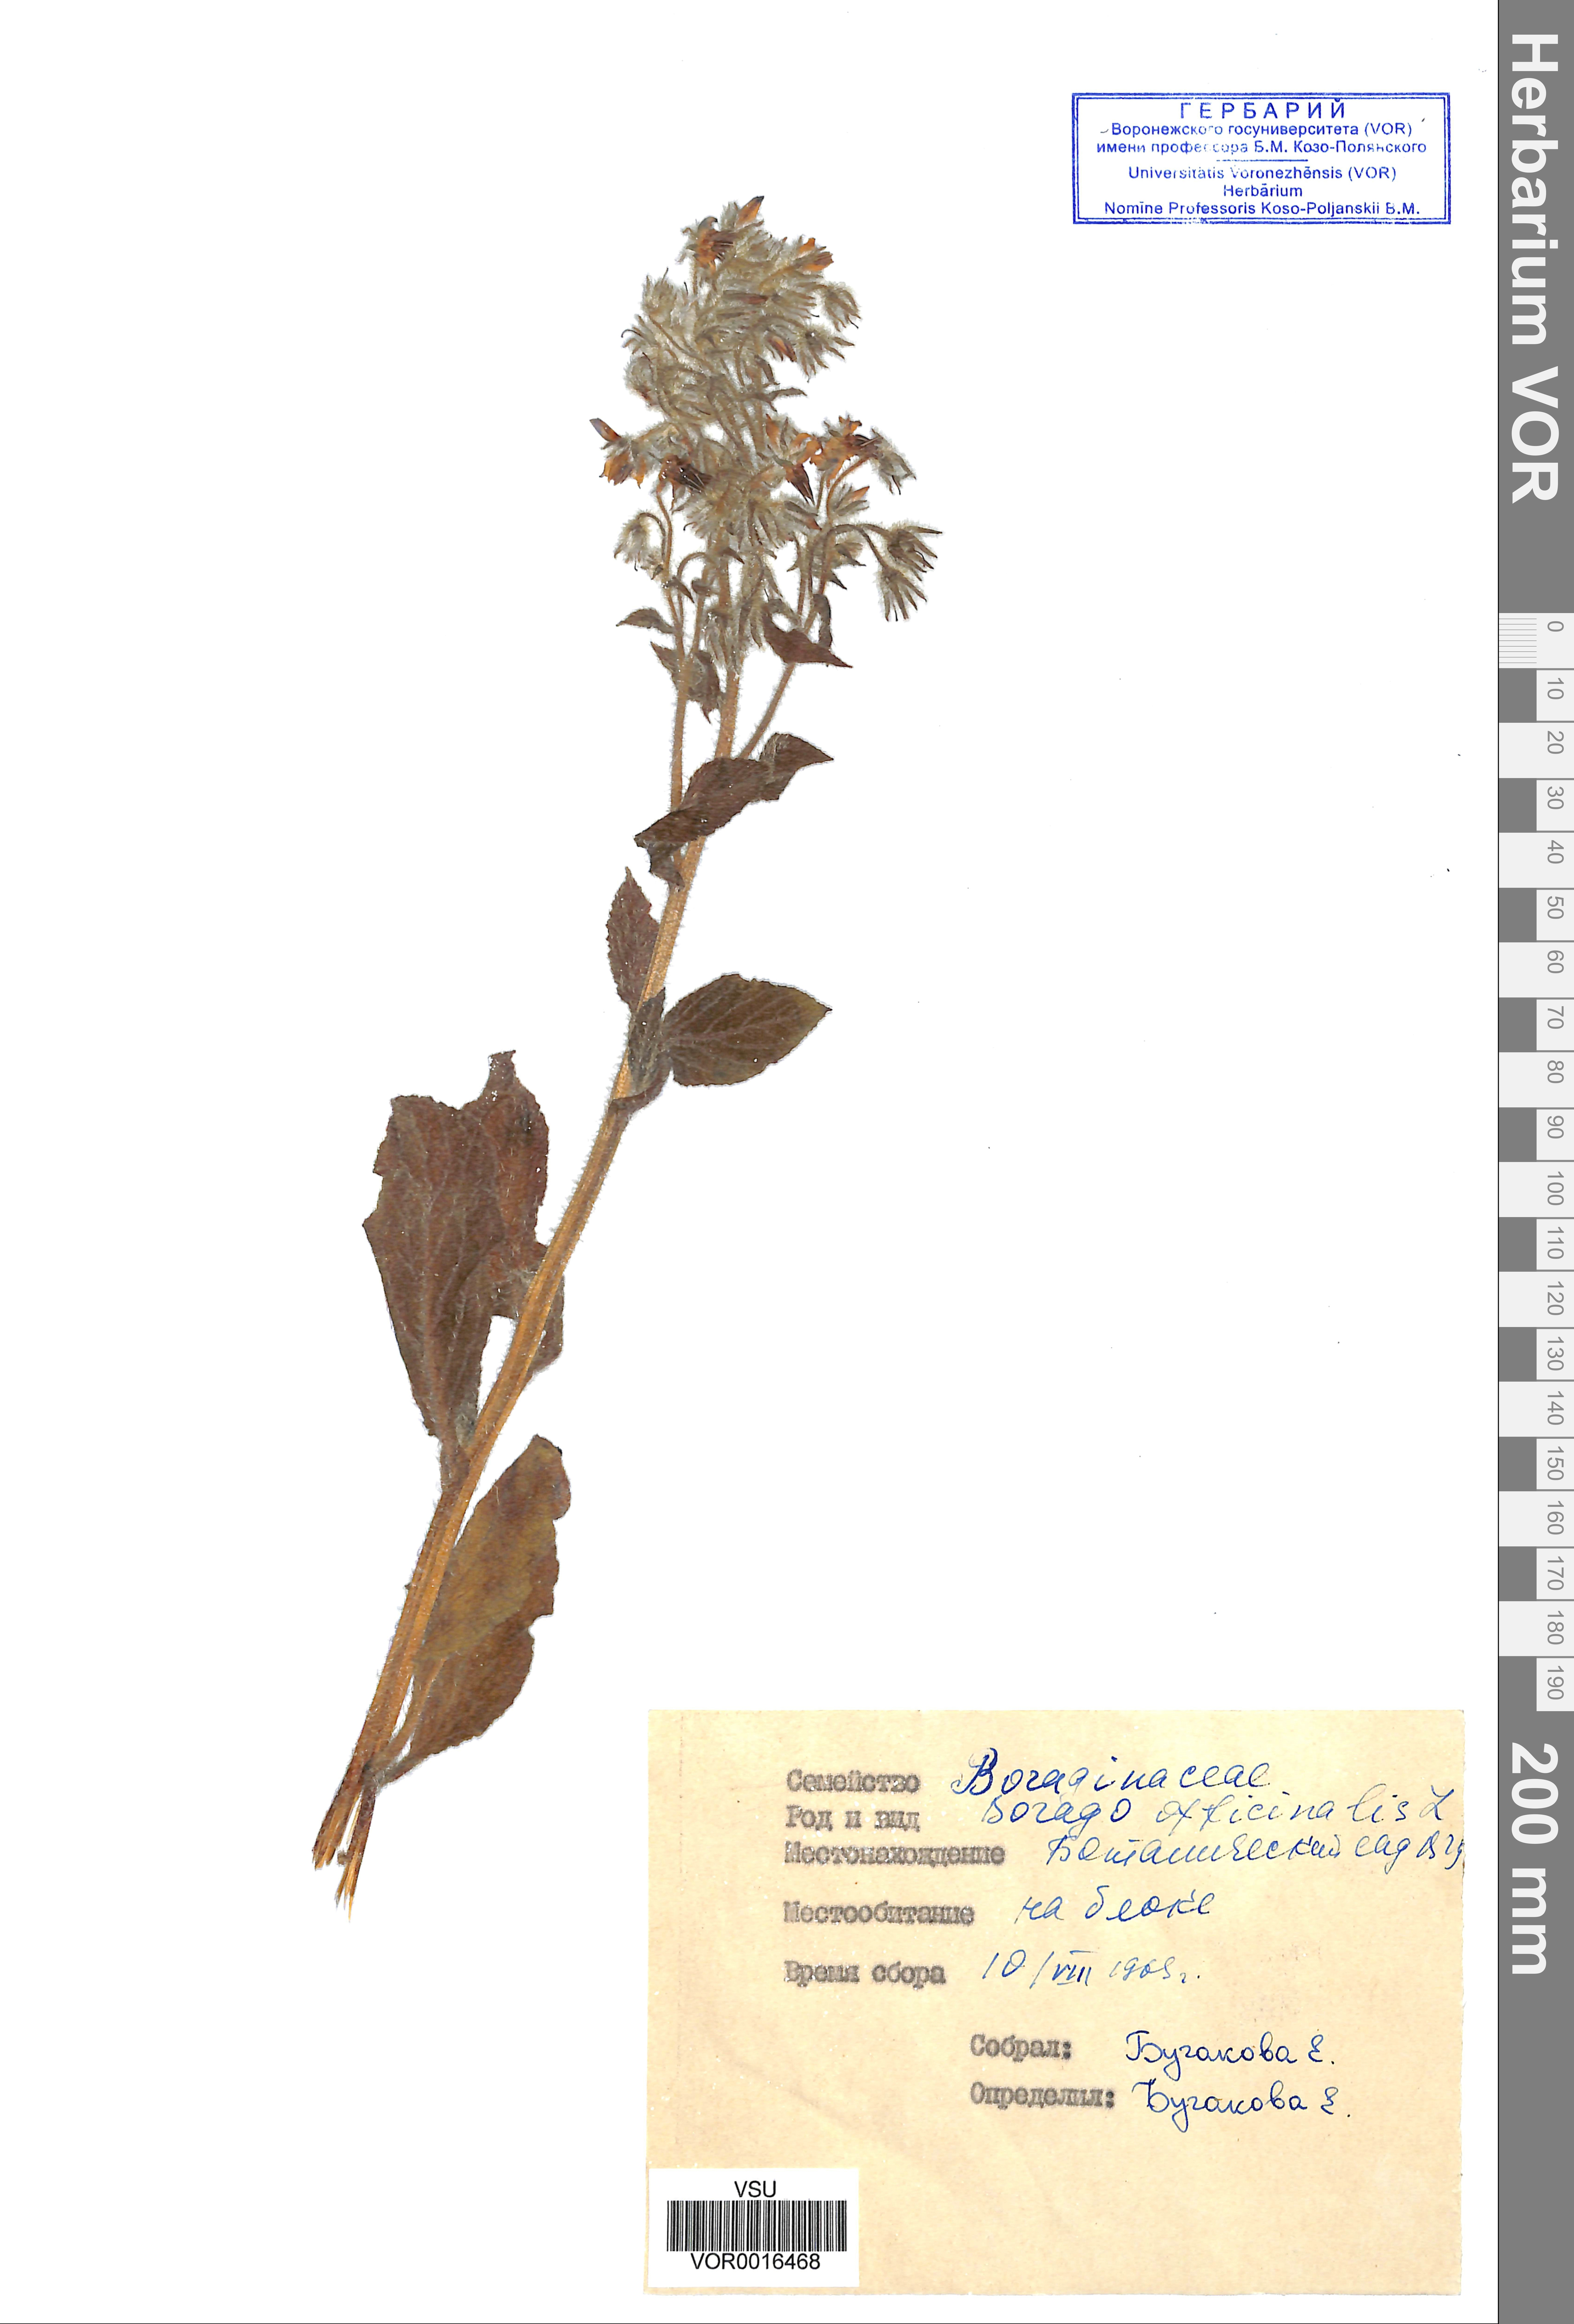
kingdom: Plantae
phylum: Tracheophyta
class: Magnoliopsida
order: Boraginales
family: Boraginaceae
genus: Borago
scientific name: Borago officinalis
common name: Borage
